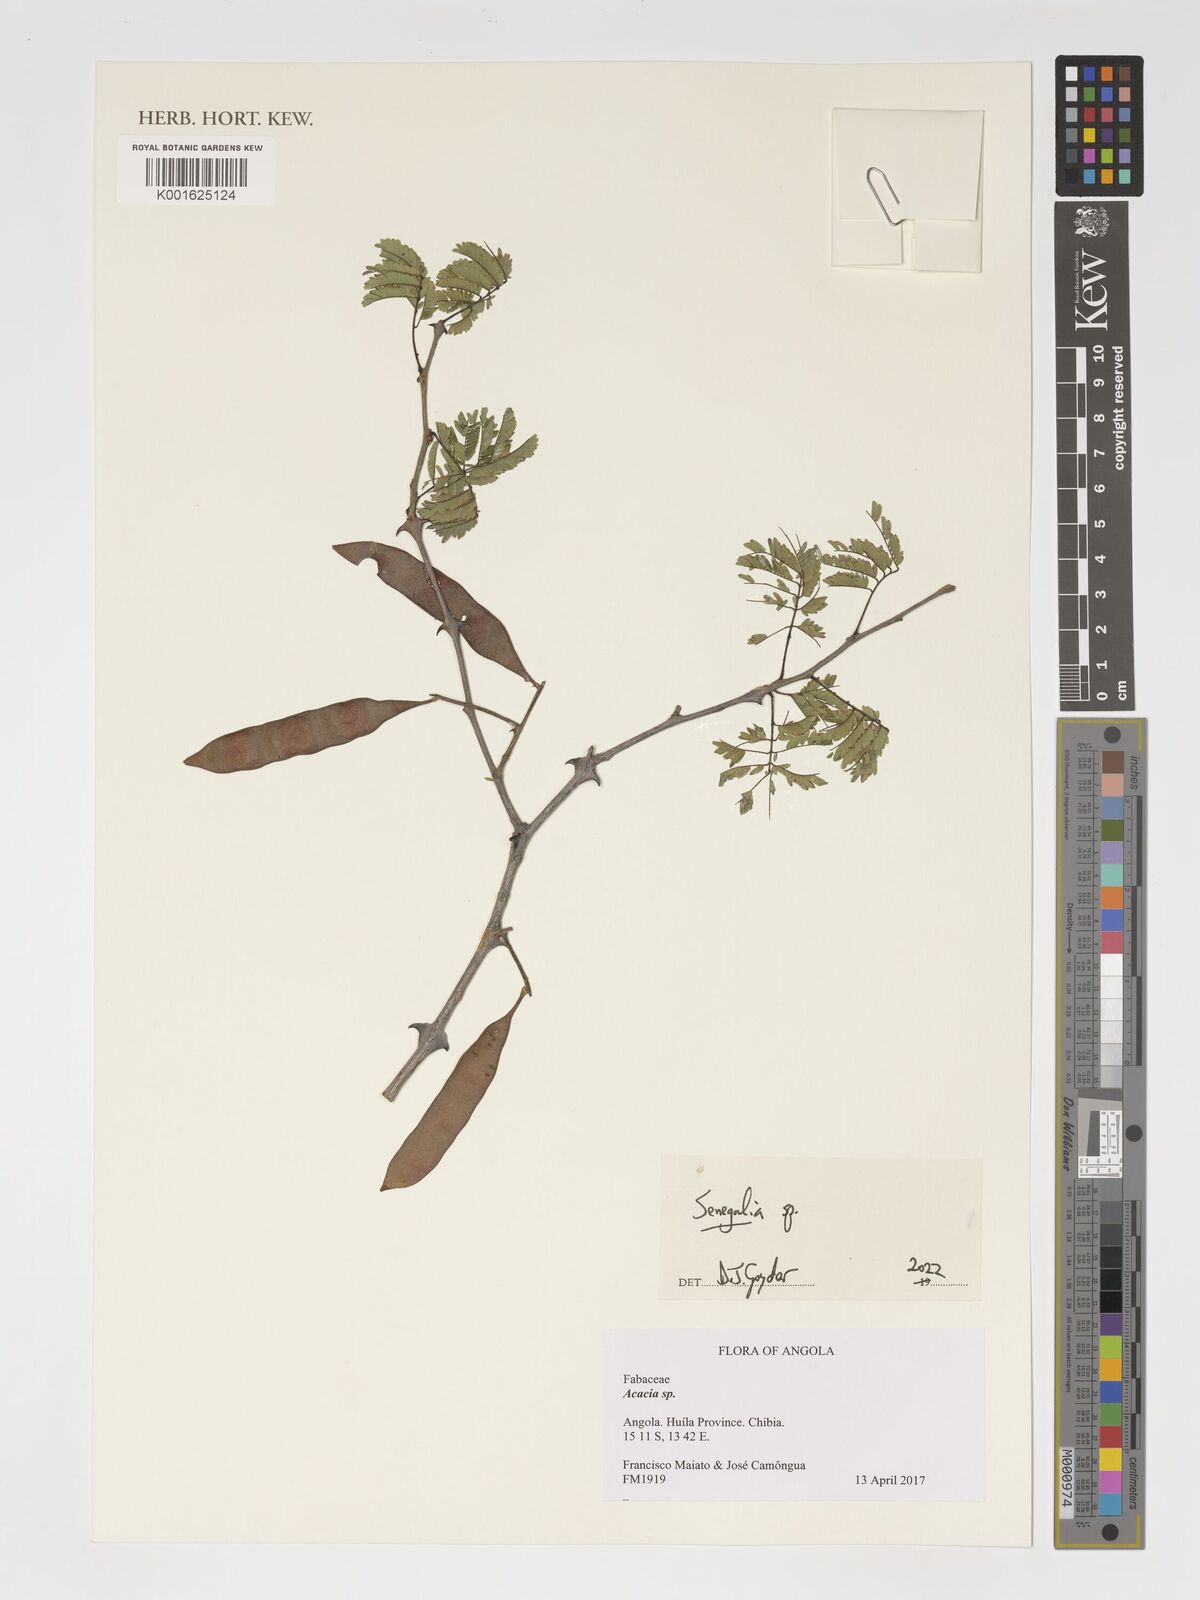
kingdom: Plantae
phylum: Tracheophyta
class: Magnoliopsida
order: Fabales
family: Fabaceae
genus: Senegalia
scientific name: Senegalia
